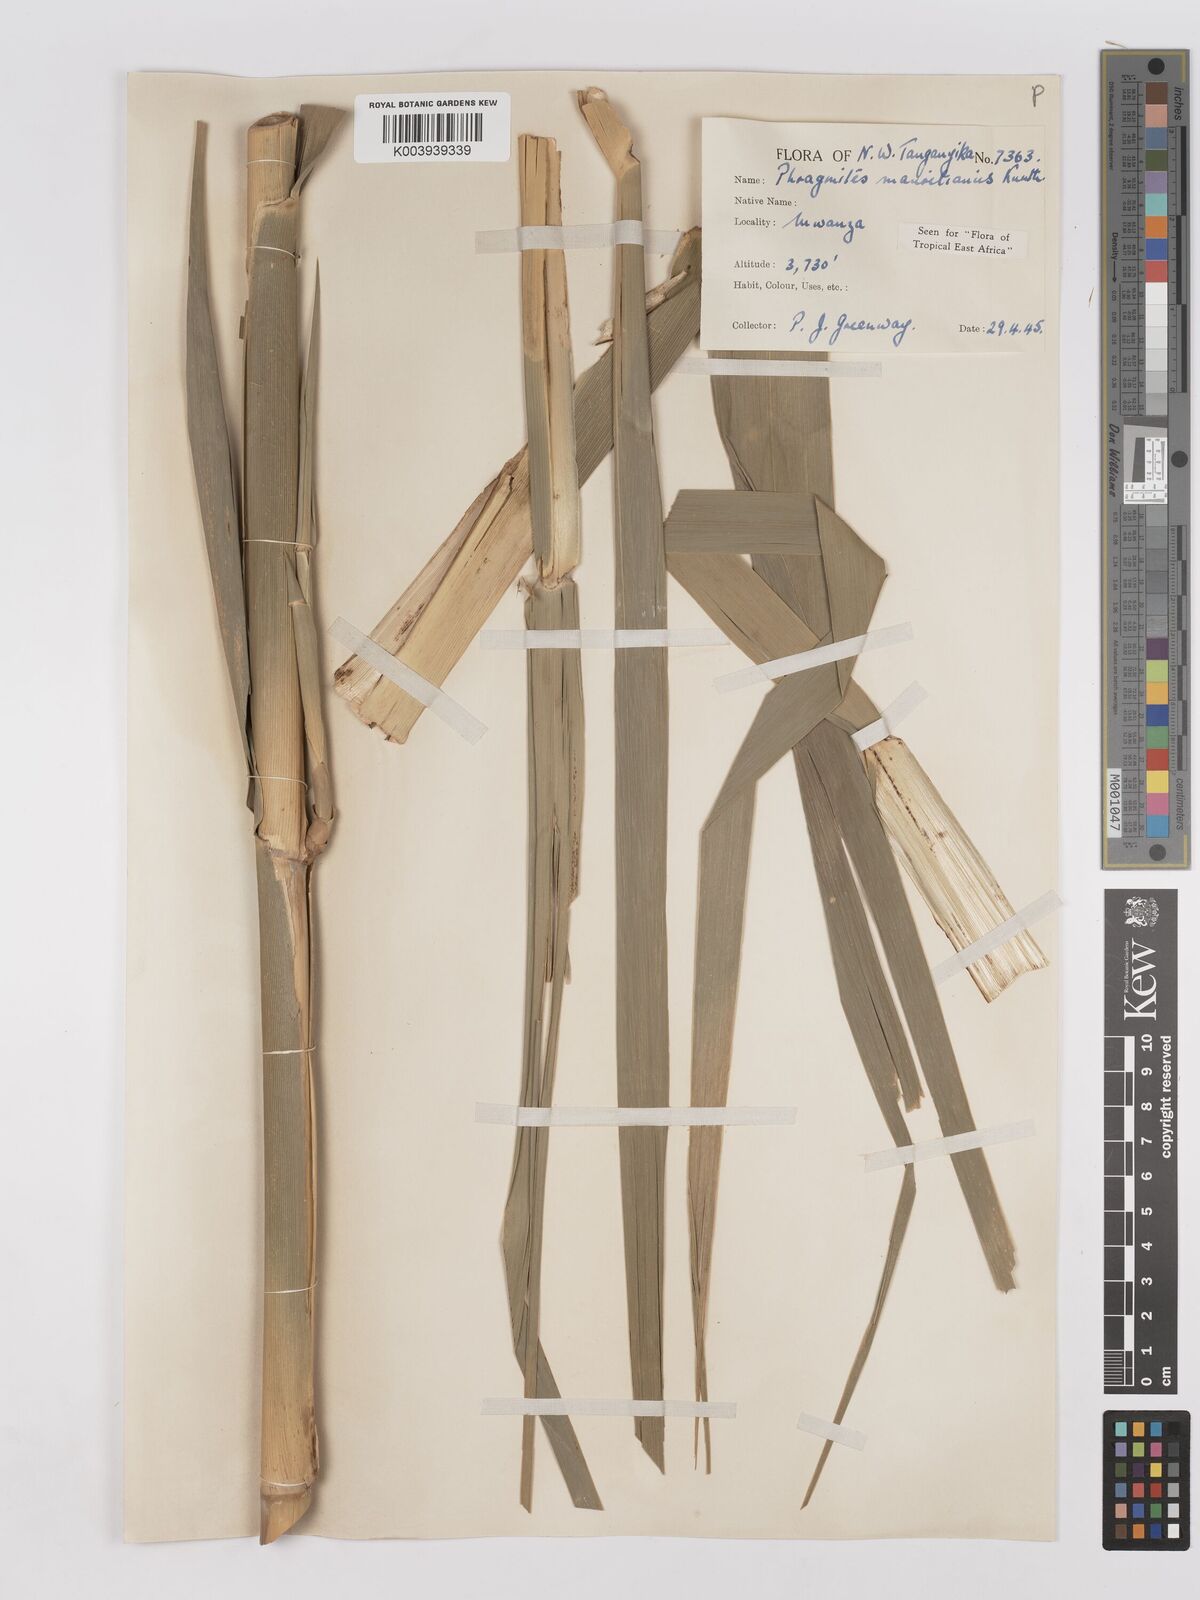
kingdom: Plantae
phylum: Tracheophyta
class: Liliopsida
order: Poales
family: Poaceae
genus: Phragmites
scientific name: Phragmites mauritianus
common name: Reed grass
